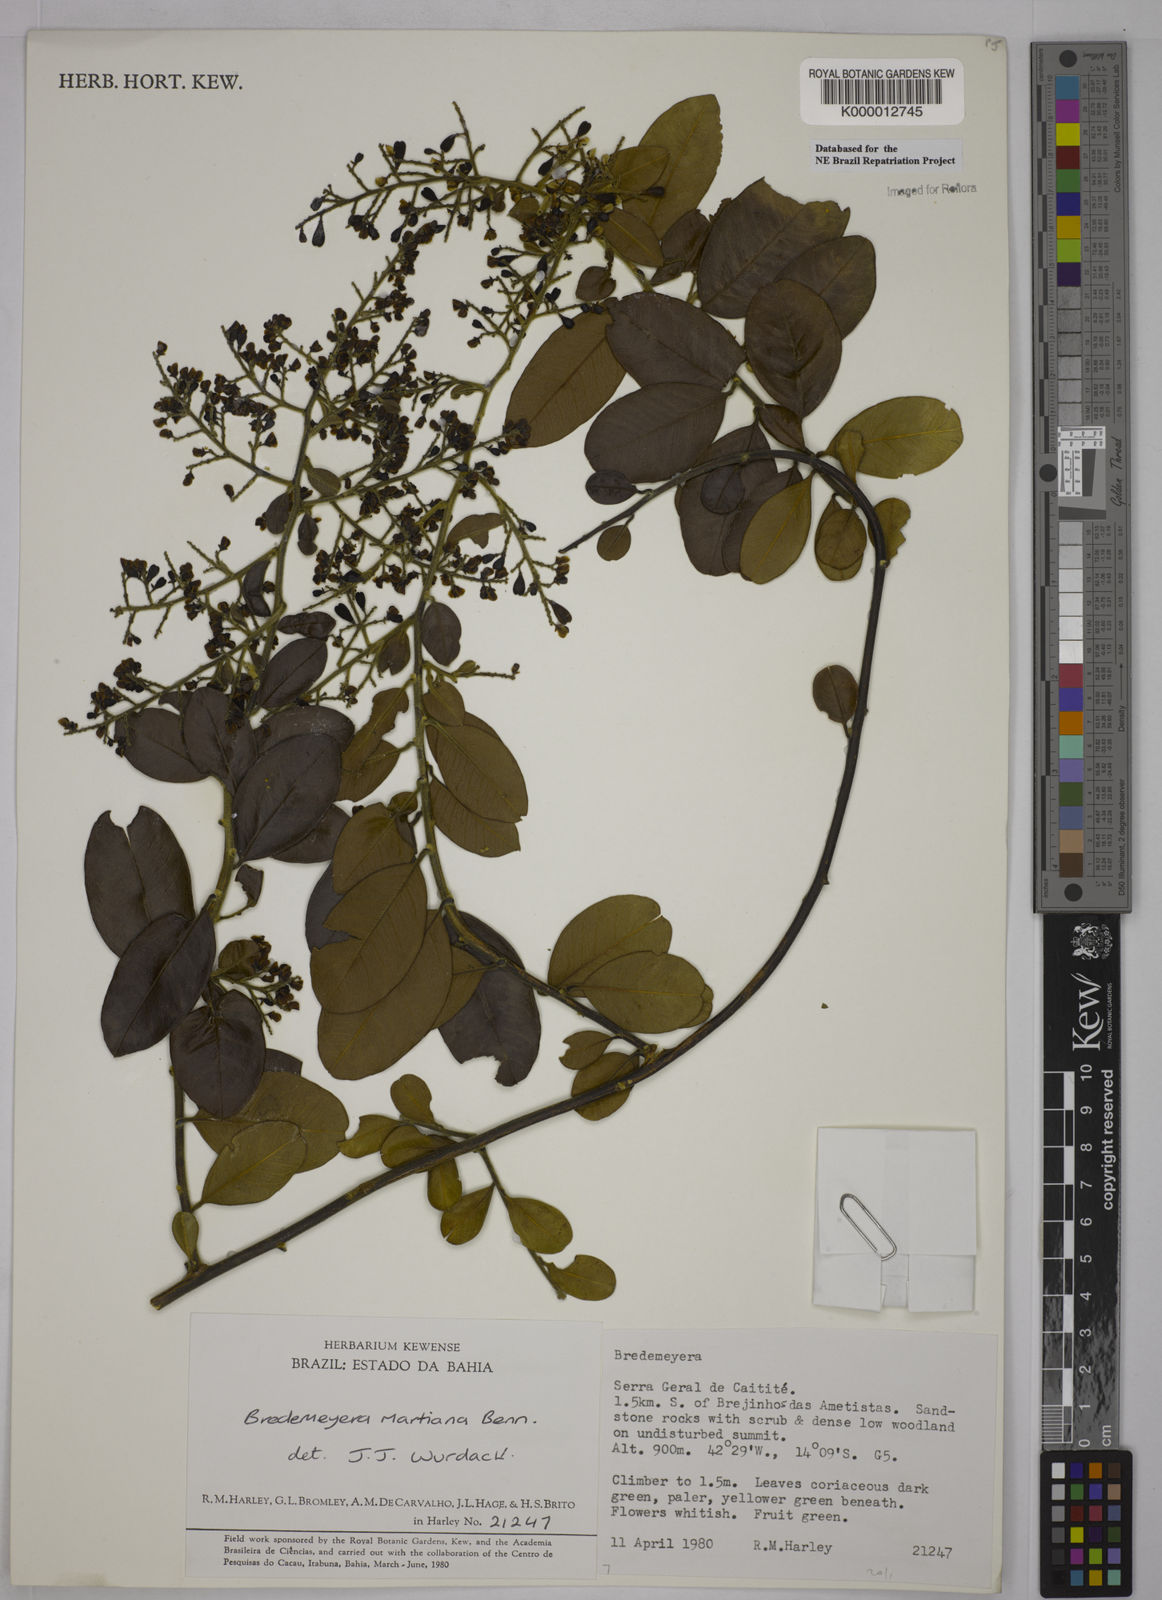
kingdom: Plantae
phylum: Tracheophyta
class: Magnoliopsida
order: Fabales
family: Polygalaceae
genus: Bredemeyera
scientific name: Bredemeyera martiana
